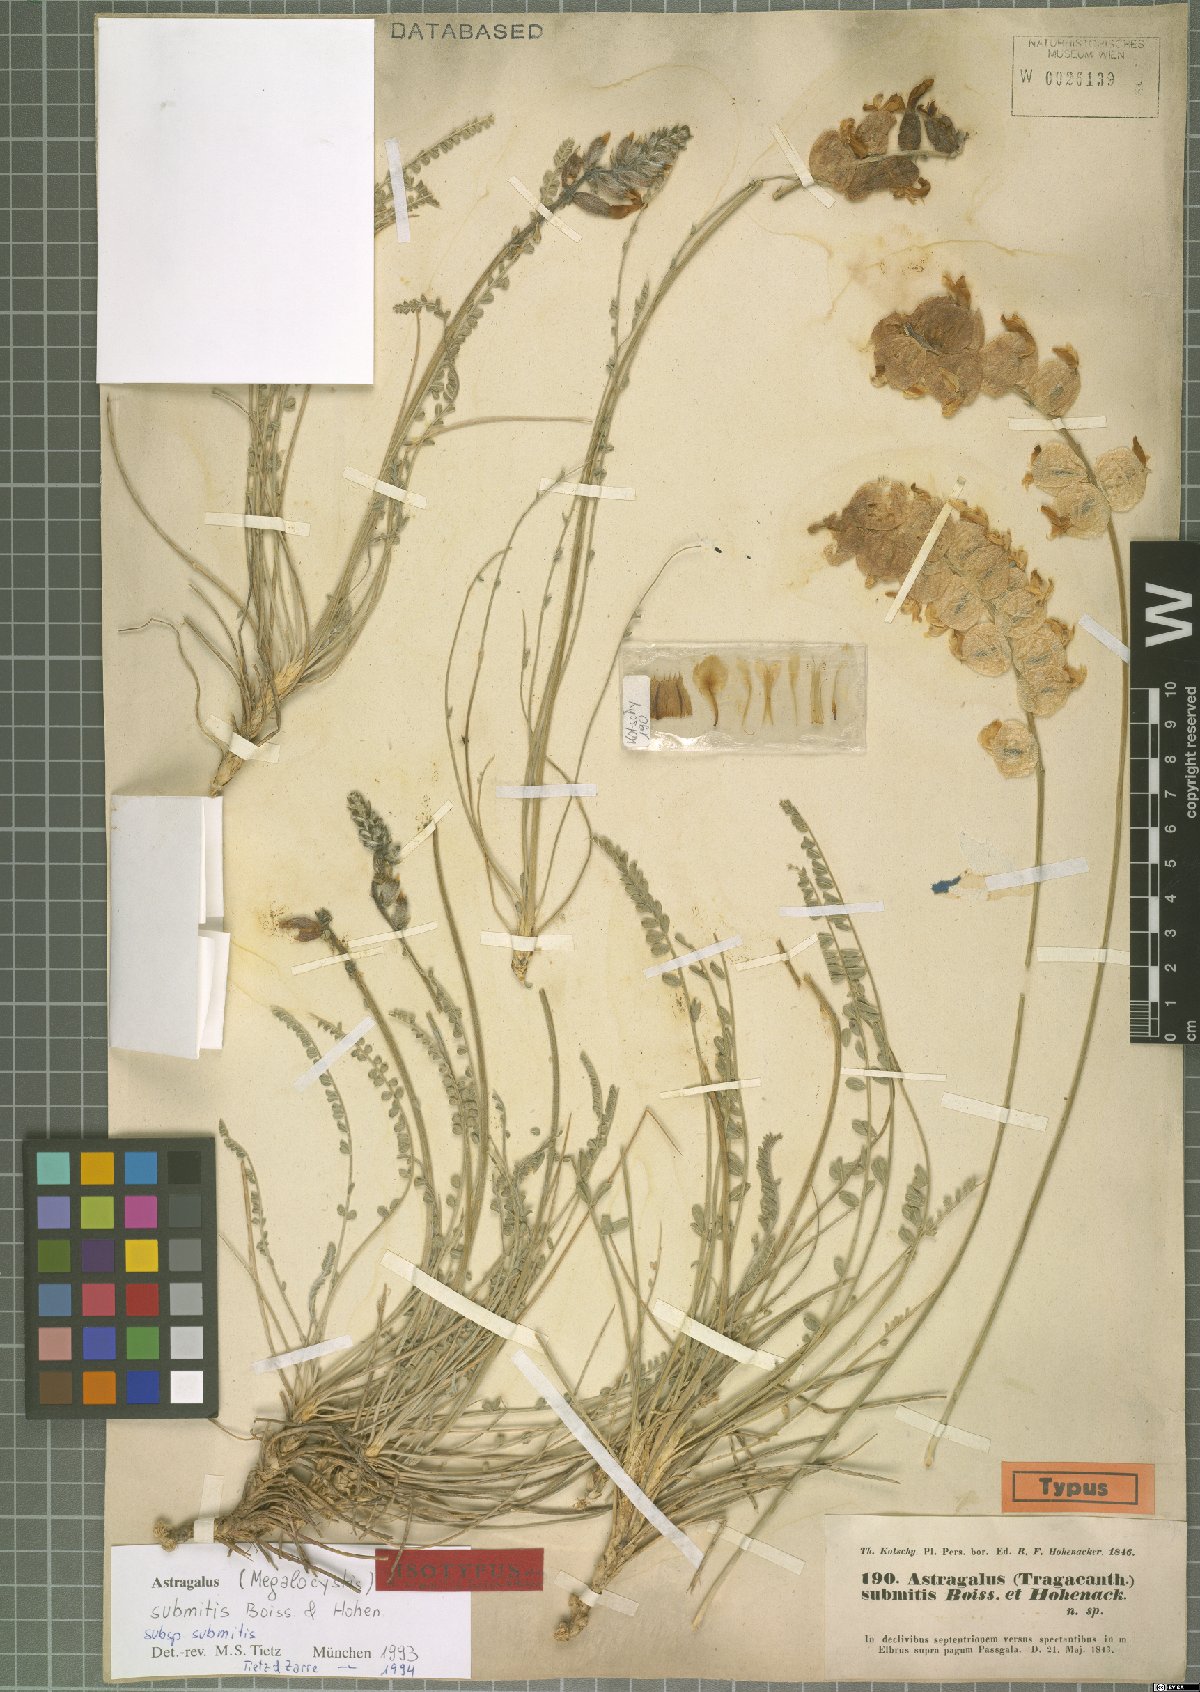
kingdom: Plantae
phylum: Tracheophyta
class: Magnoliopsida
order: Fabales
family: Fabaceae
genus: Astragalus
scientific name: Astragalus submitis
